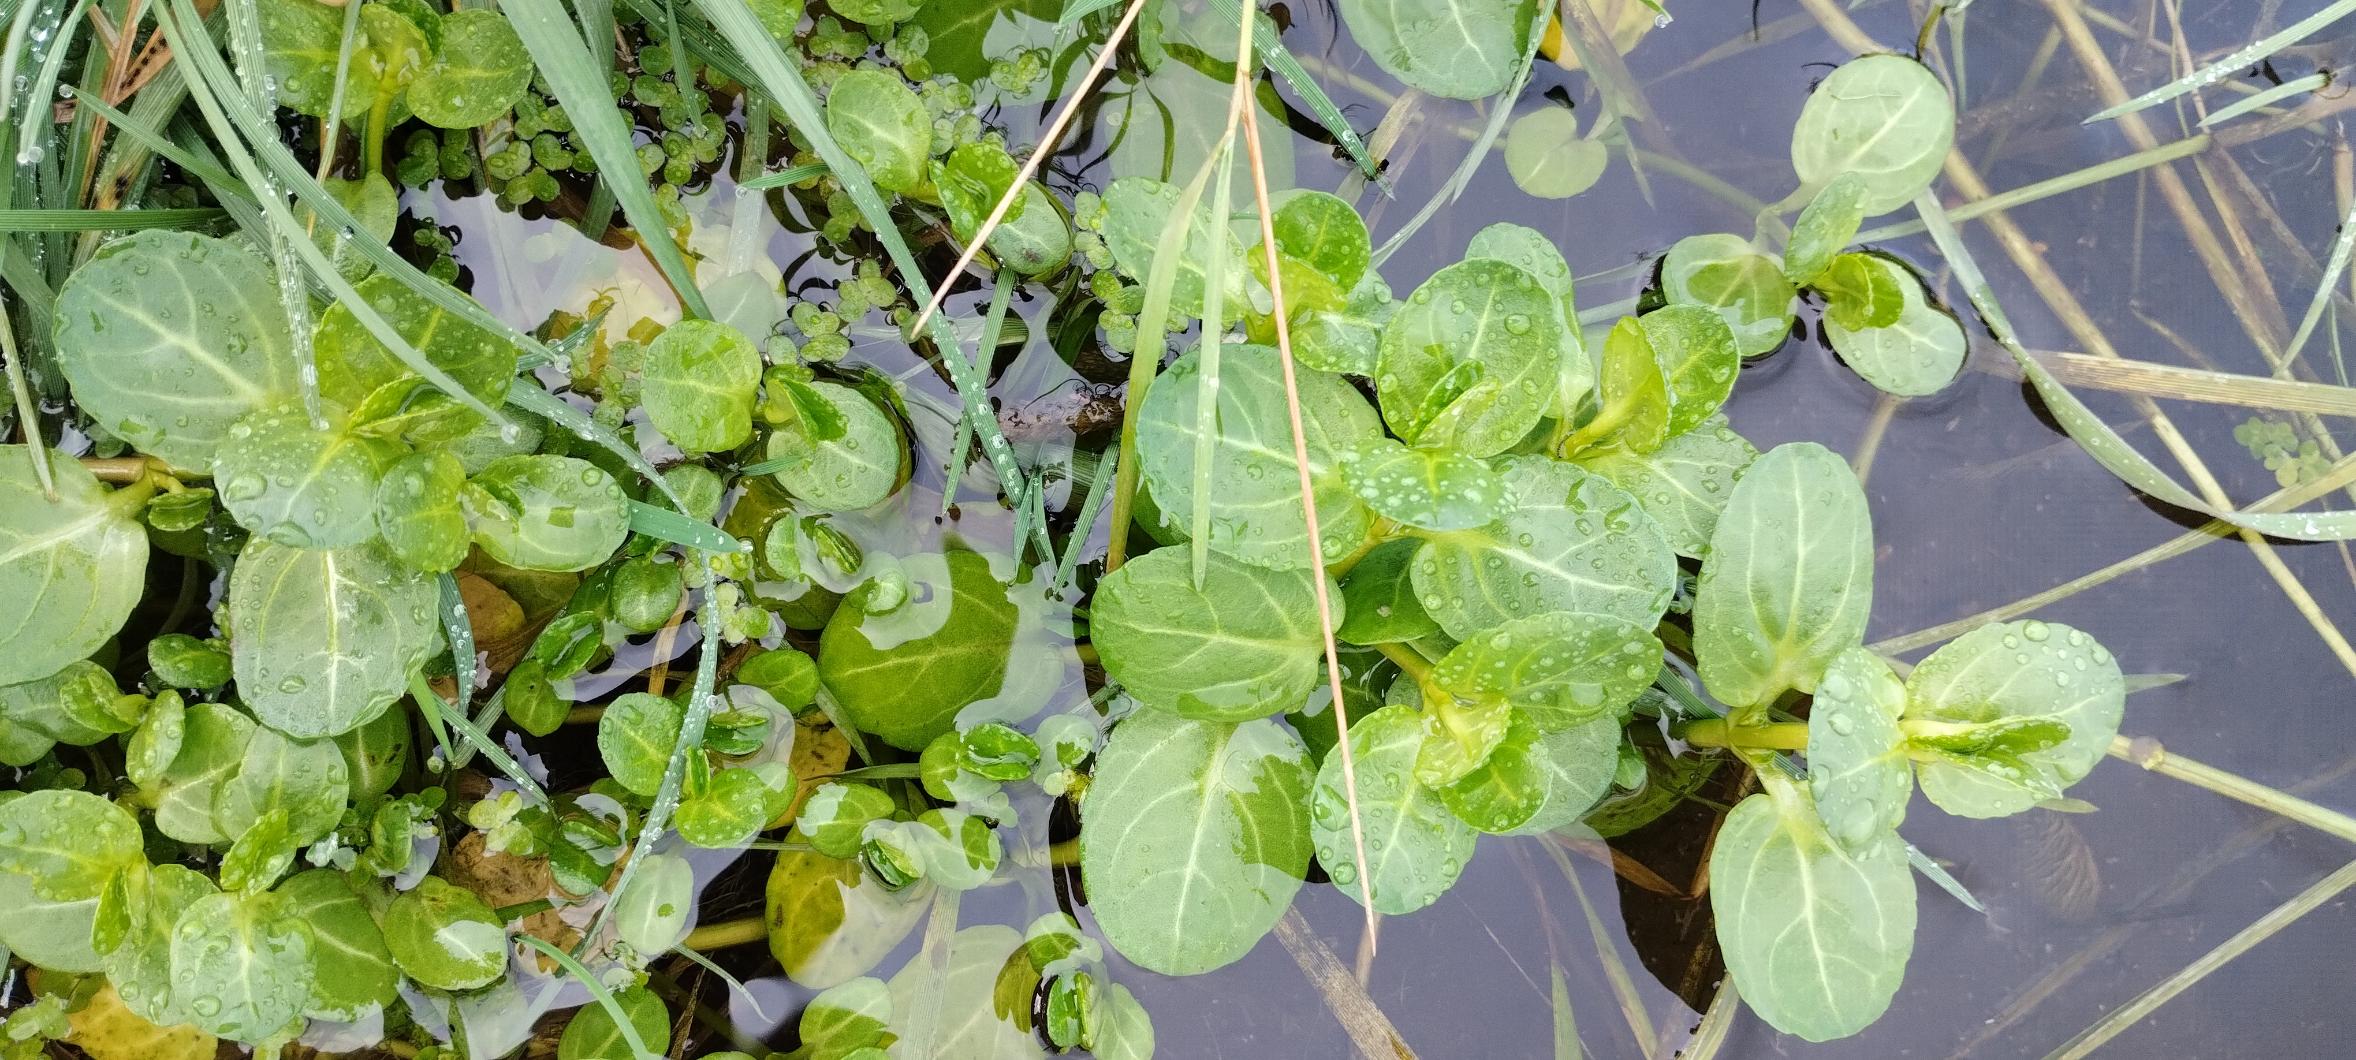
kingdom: Plantae
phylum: Tracheophyta
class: Magnoliopsida
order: Lamiales
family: Plantaginaceae
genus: Veronica
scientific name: Veronica beccabunga
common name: Tykbladet ærenpris
